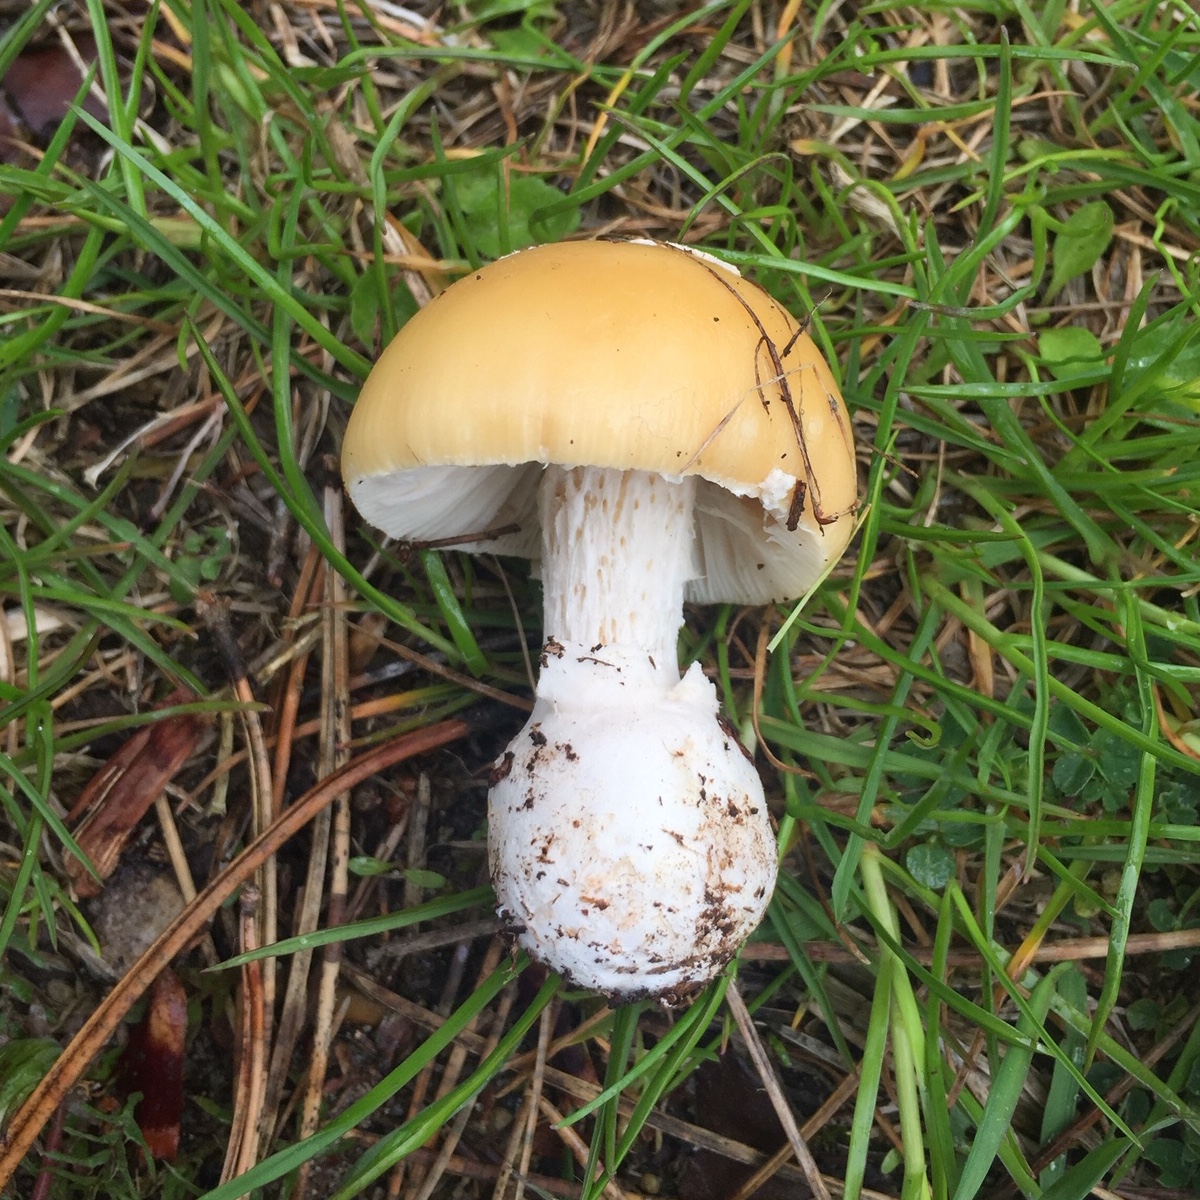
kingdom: Fungi
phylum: Basidiomycota
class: Agaricomycetes
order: Agaricales
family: Amanitaceae
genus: Amanita
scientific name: Amanita gemmata
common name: okkergul fluesvamp
